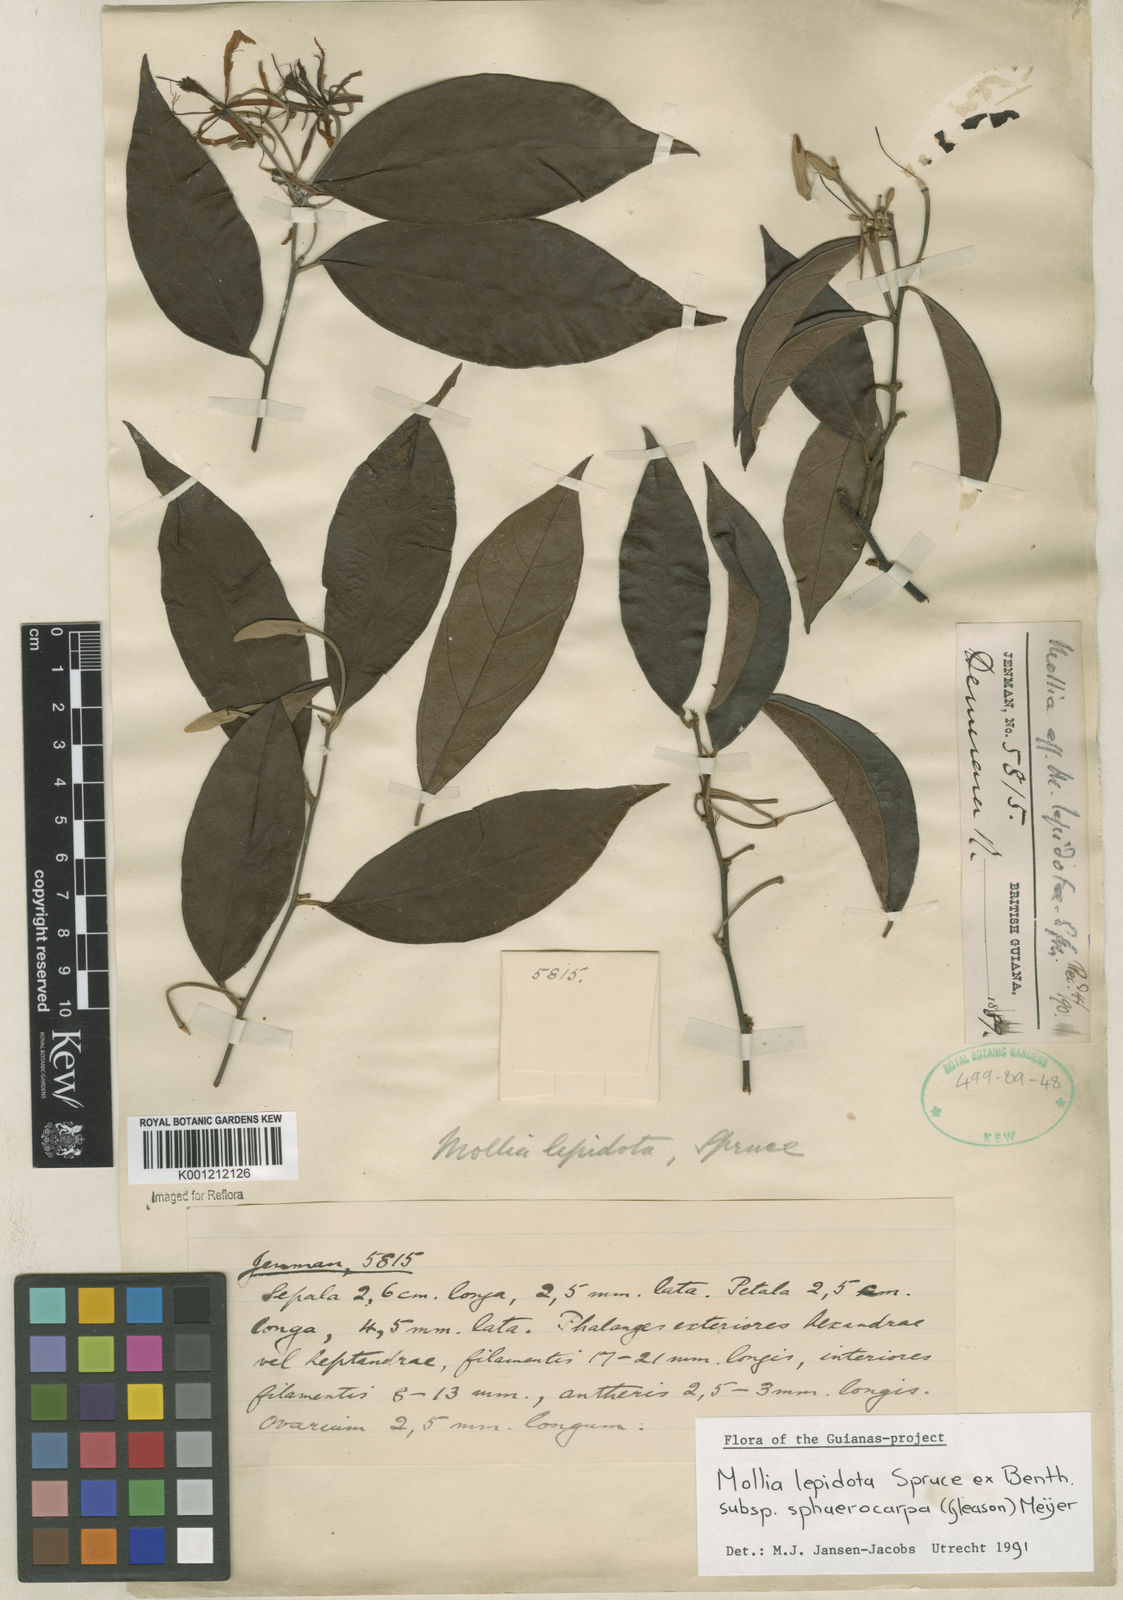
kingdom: Plantae
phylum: Tracheophyta
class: Magnoliopsida
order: Malvales
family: Malvaceae
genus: Mollia
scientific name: Mollia lepidota
